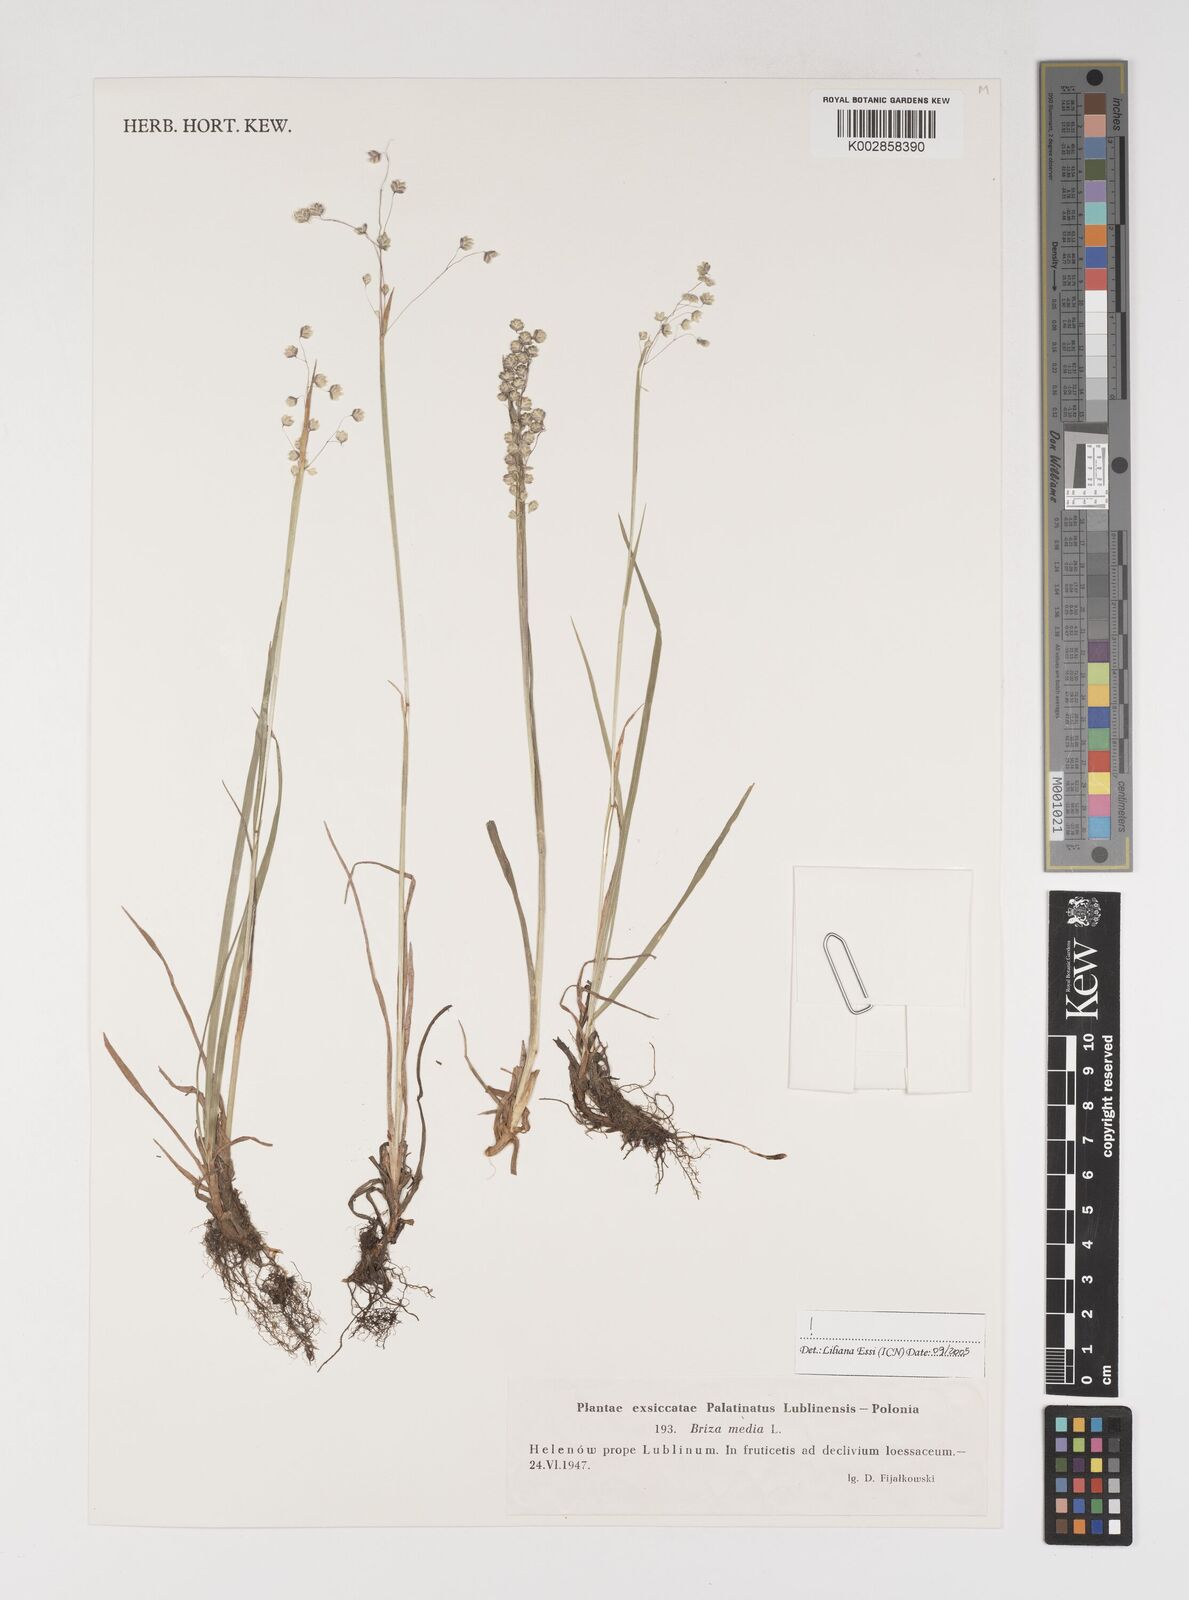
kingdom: Plantae
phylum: Tracheophyta
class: Liliopsida
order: Poales
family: Poaceae
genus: Briza
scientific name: Briza media
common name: Quaking grass
